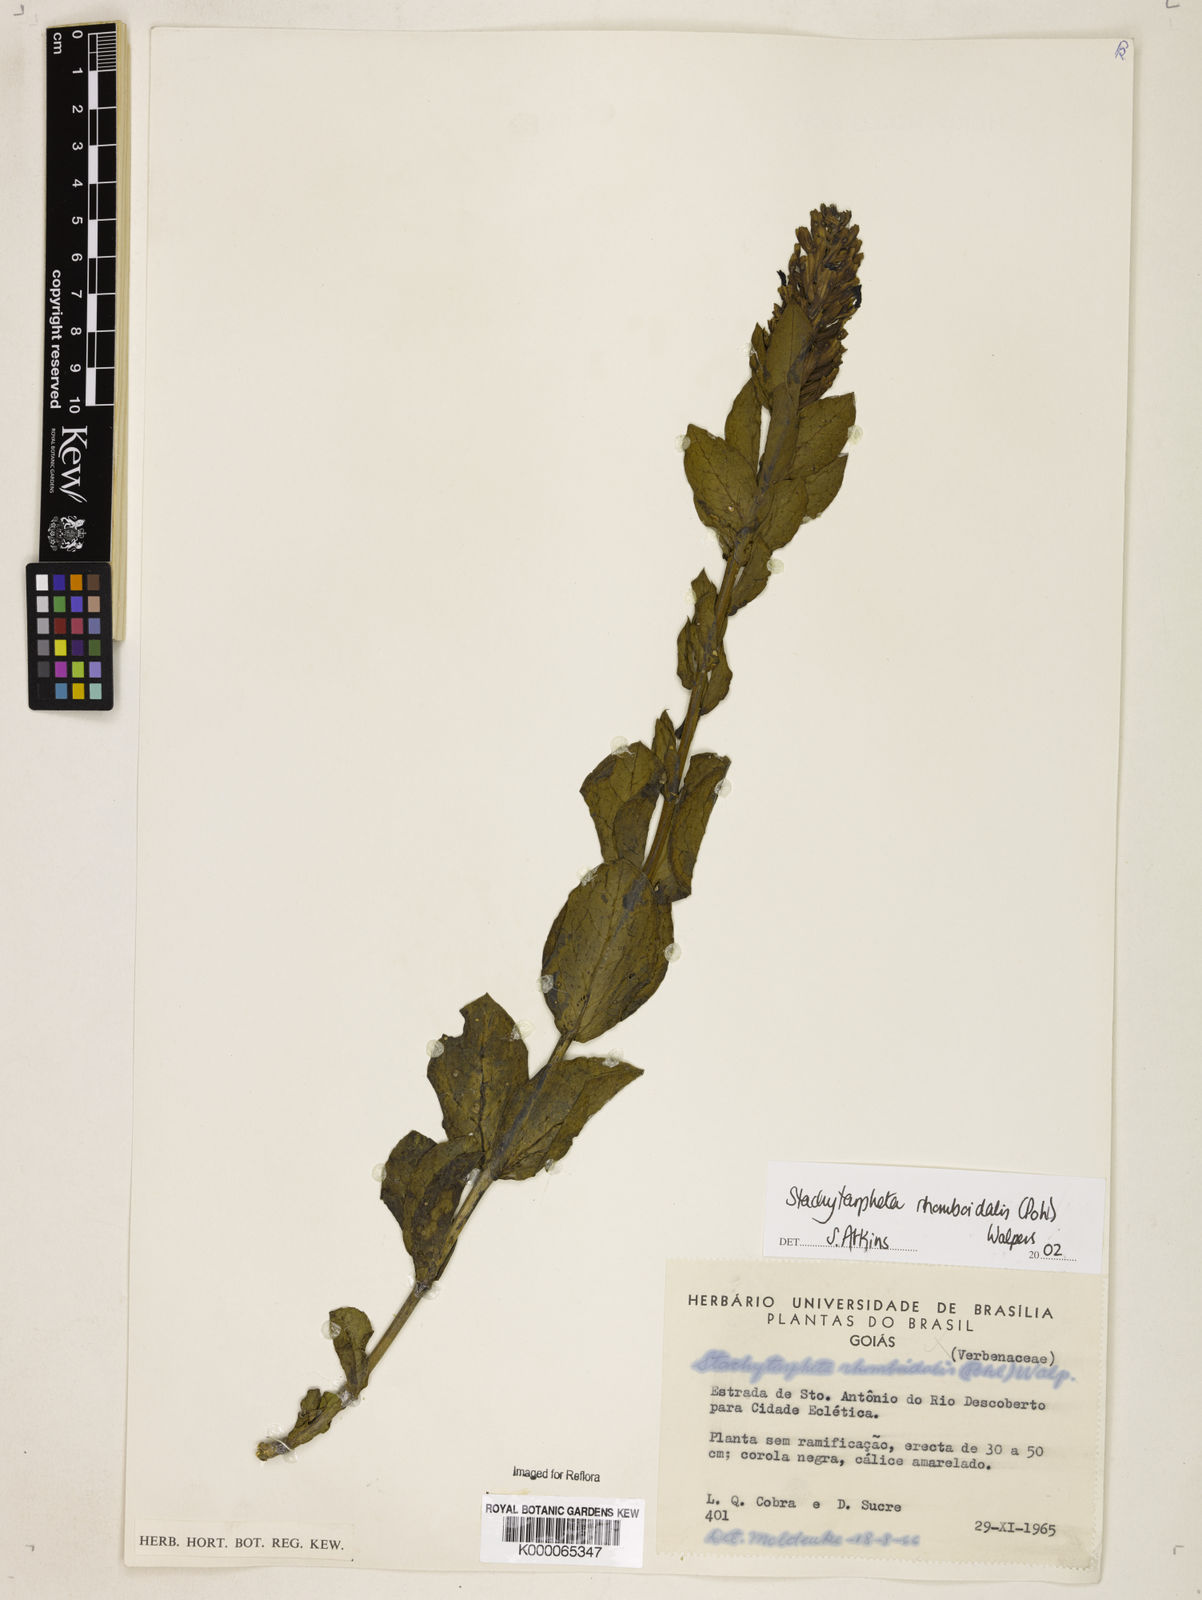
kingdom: Plantae
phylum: Tracheophyta
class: Magnoliopsida
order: Lamiales
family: Verbenaceae
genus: Stachytarpheta
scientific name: Stachytarpheta rhomboidalis
